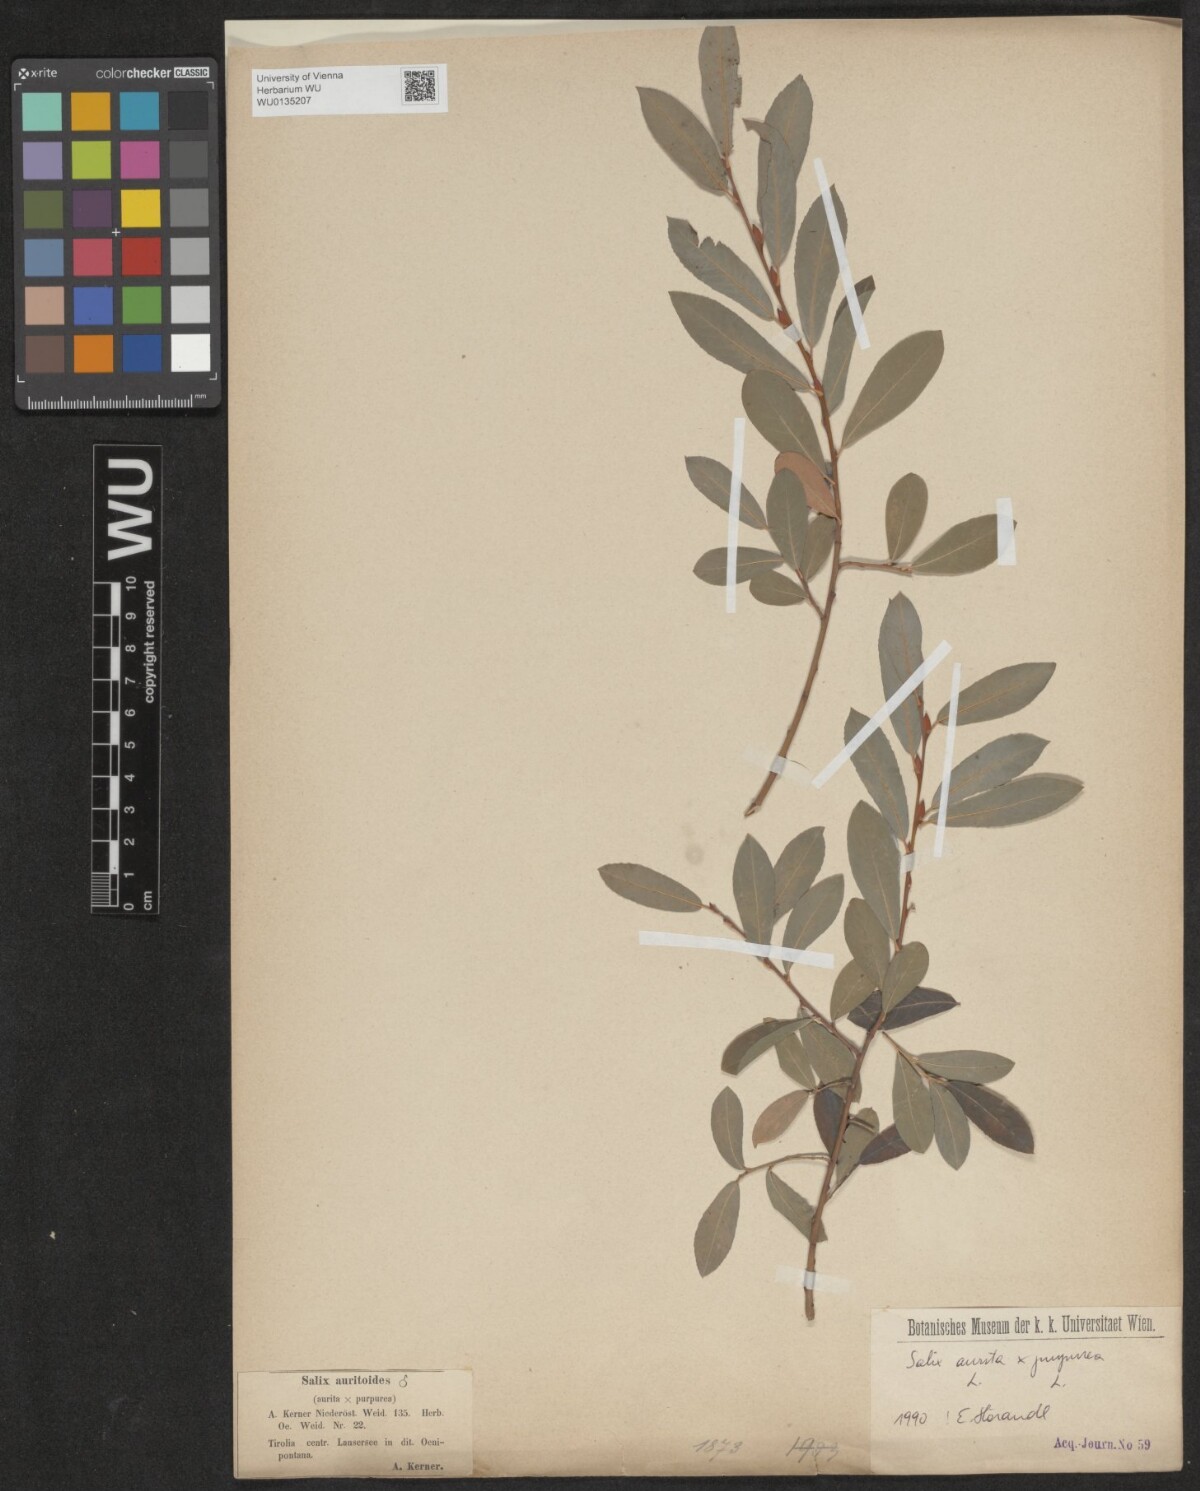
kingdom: Plantae
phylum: Tracheophyta
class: Magnoliopsida
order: Malpighiales
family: Salicaceae
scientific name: Salicaceae
